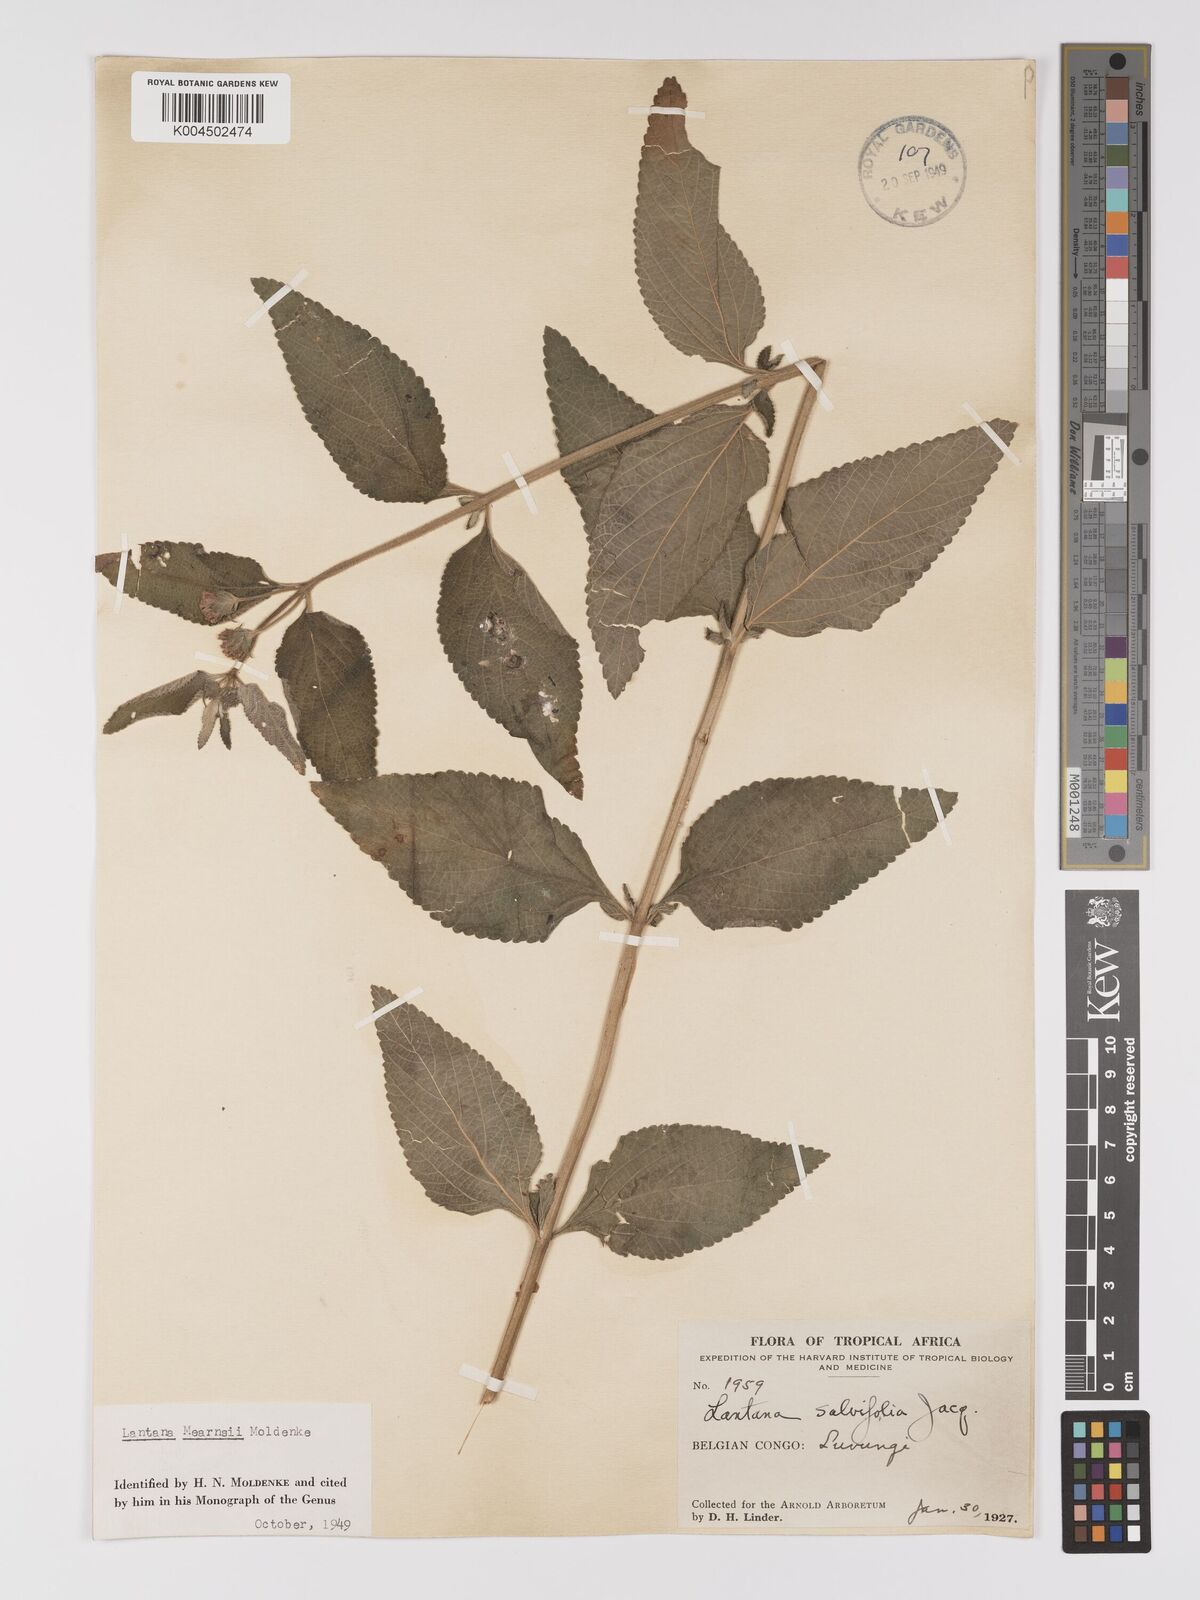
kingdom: Plantae
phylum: Tracheophyta
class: Magnoliopsida
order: Lamiales
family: Verbenaceae
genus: Lantana
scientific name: Lantana
